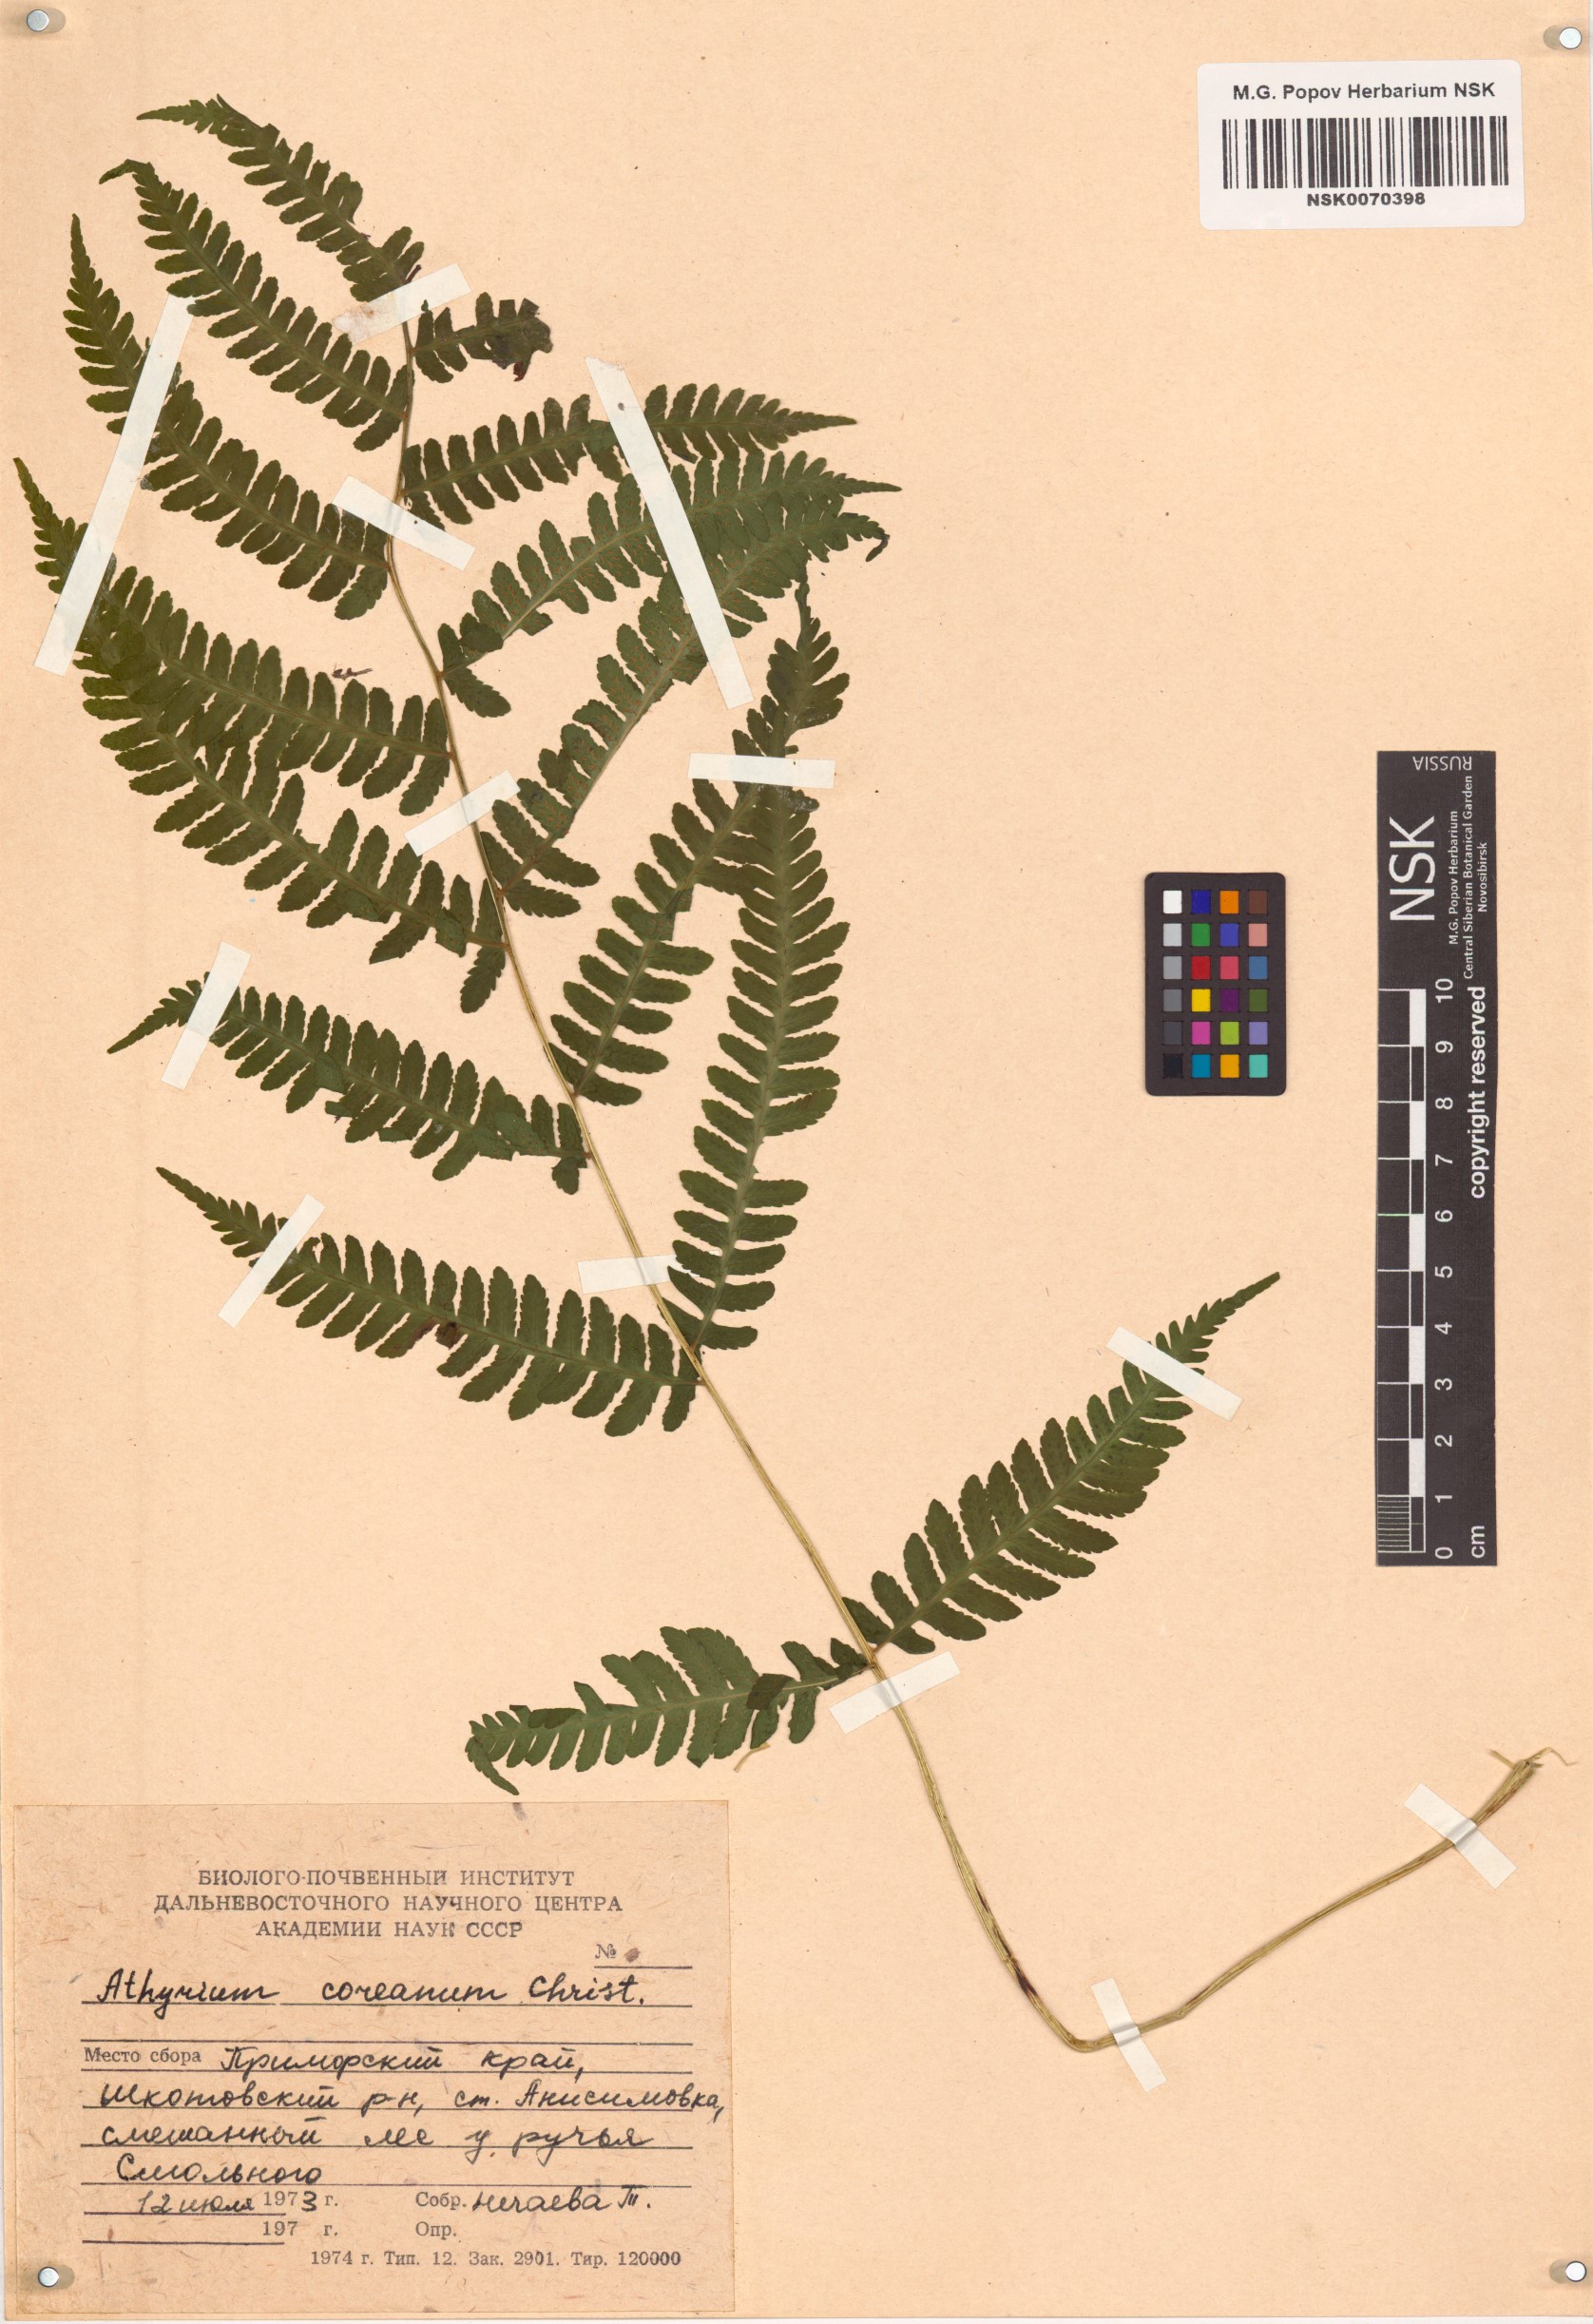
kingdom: Plantae
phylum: Tracheophyta
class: Polypodiopsida
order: Polypodiales
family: Athyriaceae
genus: Deparia
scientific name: Deparia coreana
